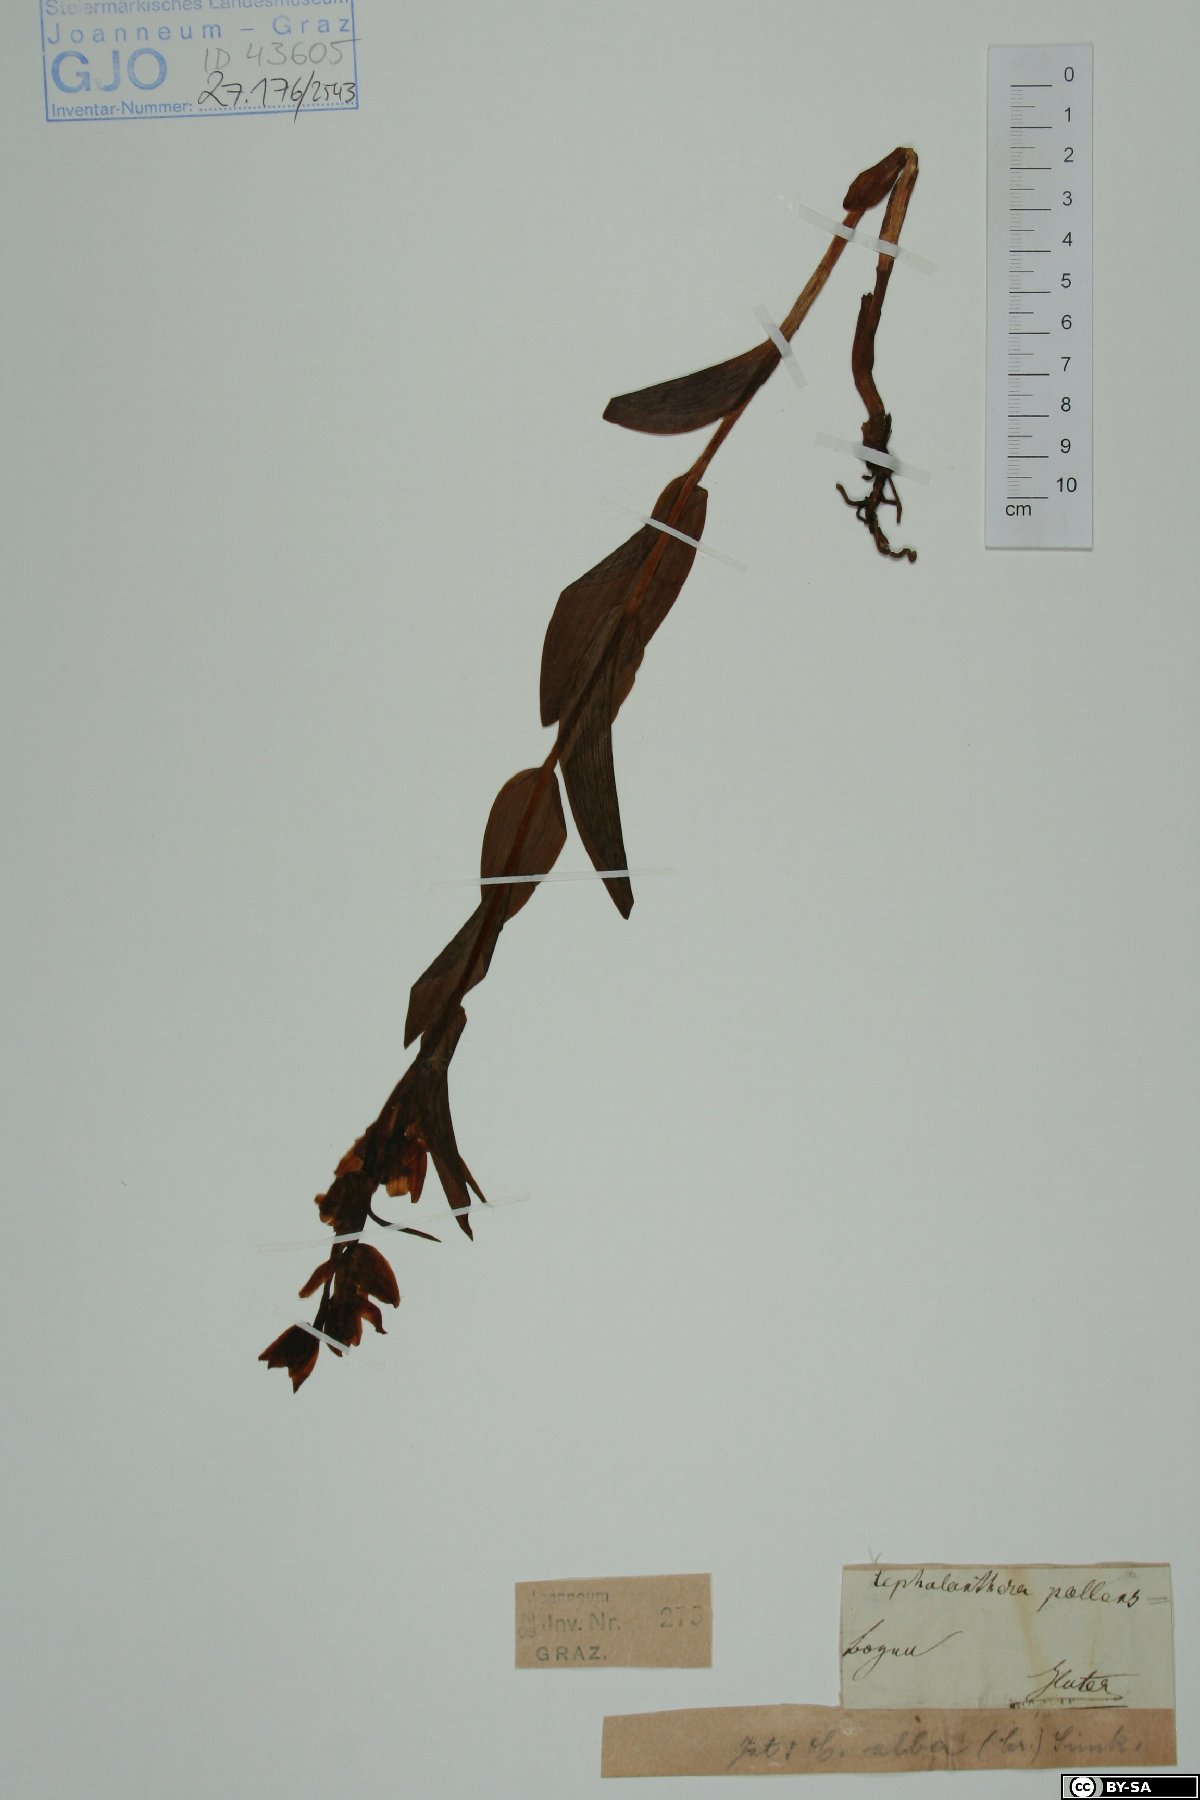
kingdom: Plantae
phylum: Tracheophyta
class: Liliopsida
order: Asparagales
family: Orchidaceae
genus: Cephalanthera
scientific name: Cephalanthera longifolia
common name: Narrow-leaved helleborine
